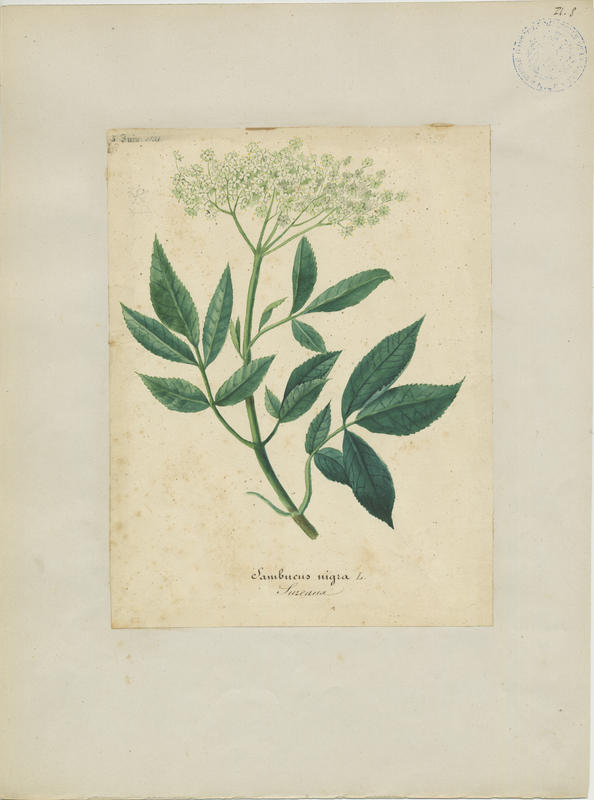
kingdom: Plantae
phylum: Tracheophyta
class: Magnoliopsida
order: Dipsacales
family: Viburnaceae
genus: Sambucus
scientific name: Sambucus nigra
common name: Elder
